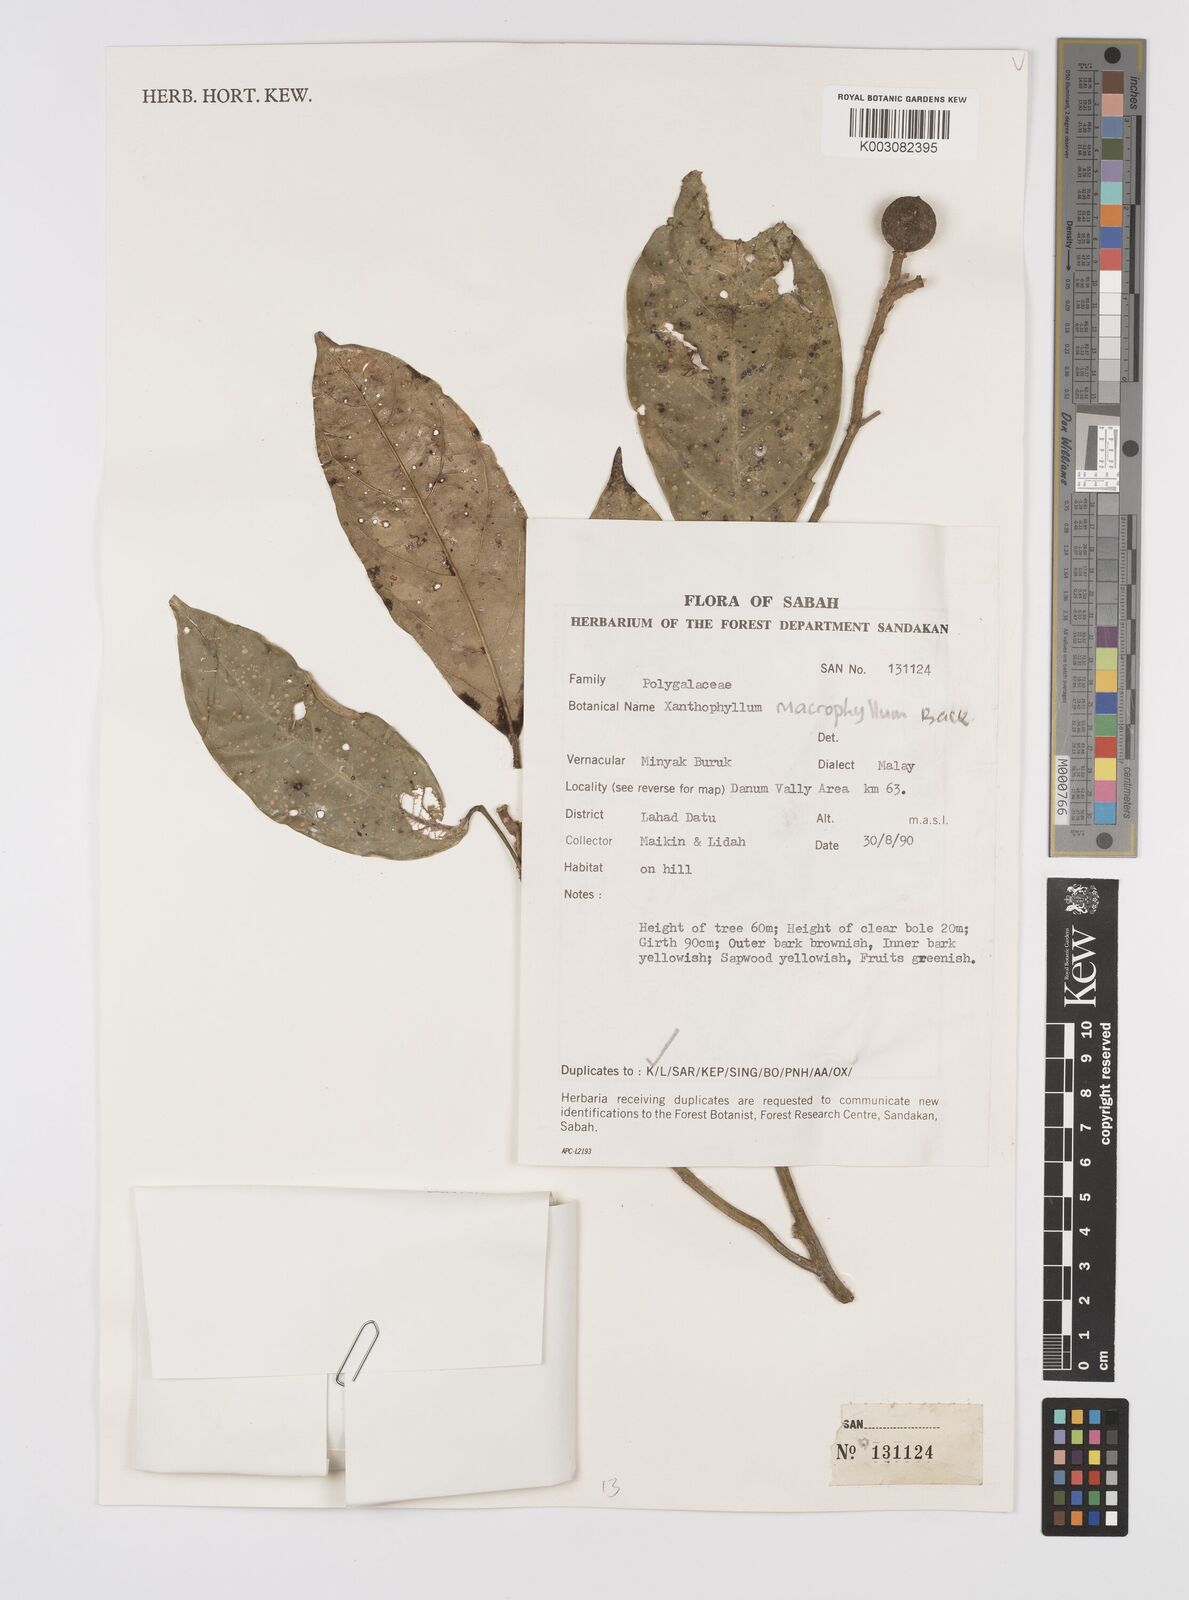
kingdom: Plantae
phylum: Tracheophyta
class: Magnoliopsida
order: Fabales
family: Polygalaceae
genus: Xanthophyllum
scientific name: Xanthophyllum macrophyllum
